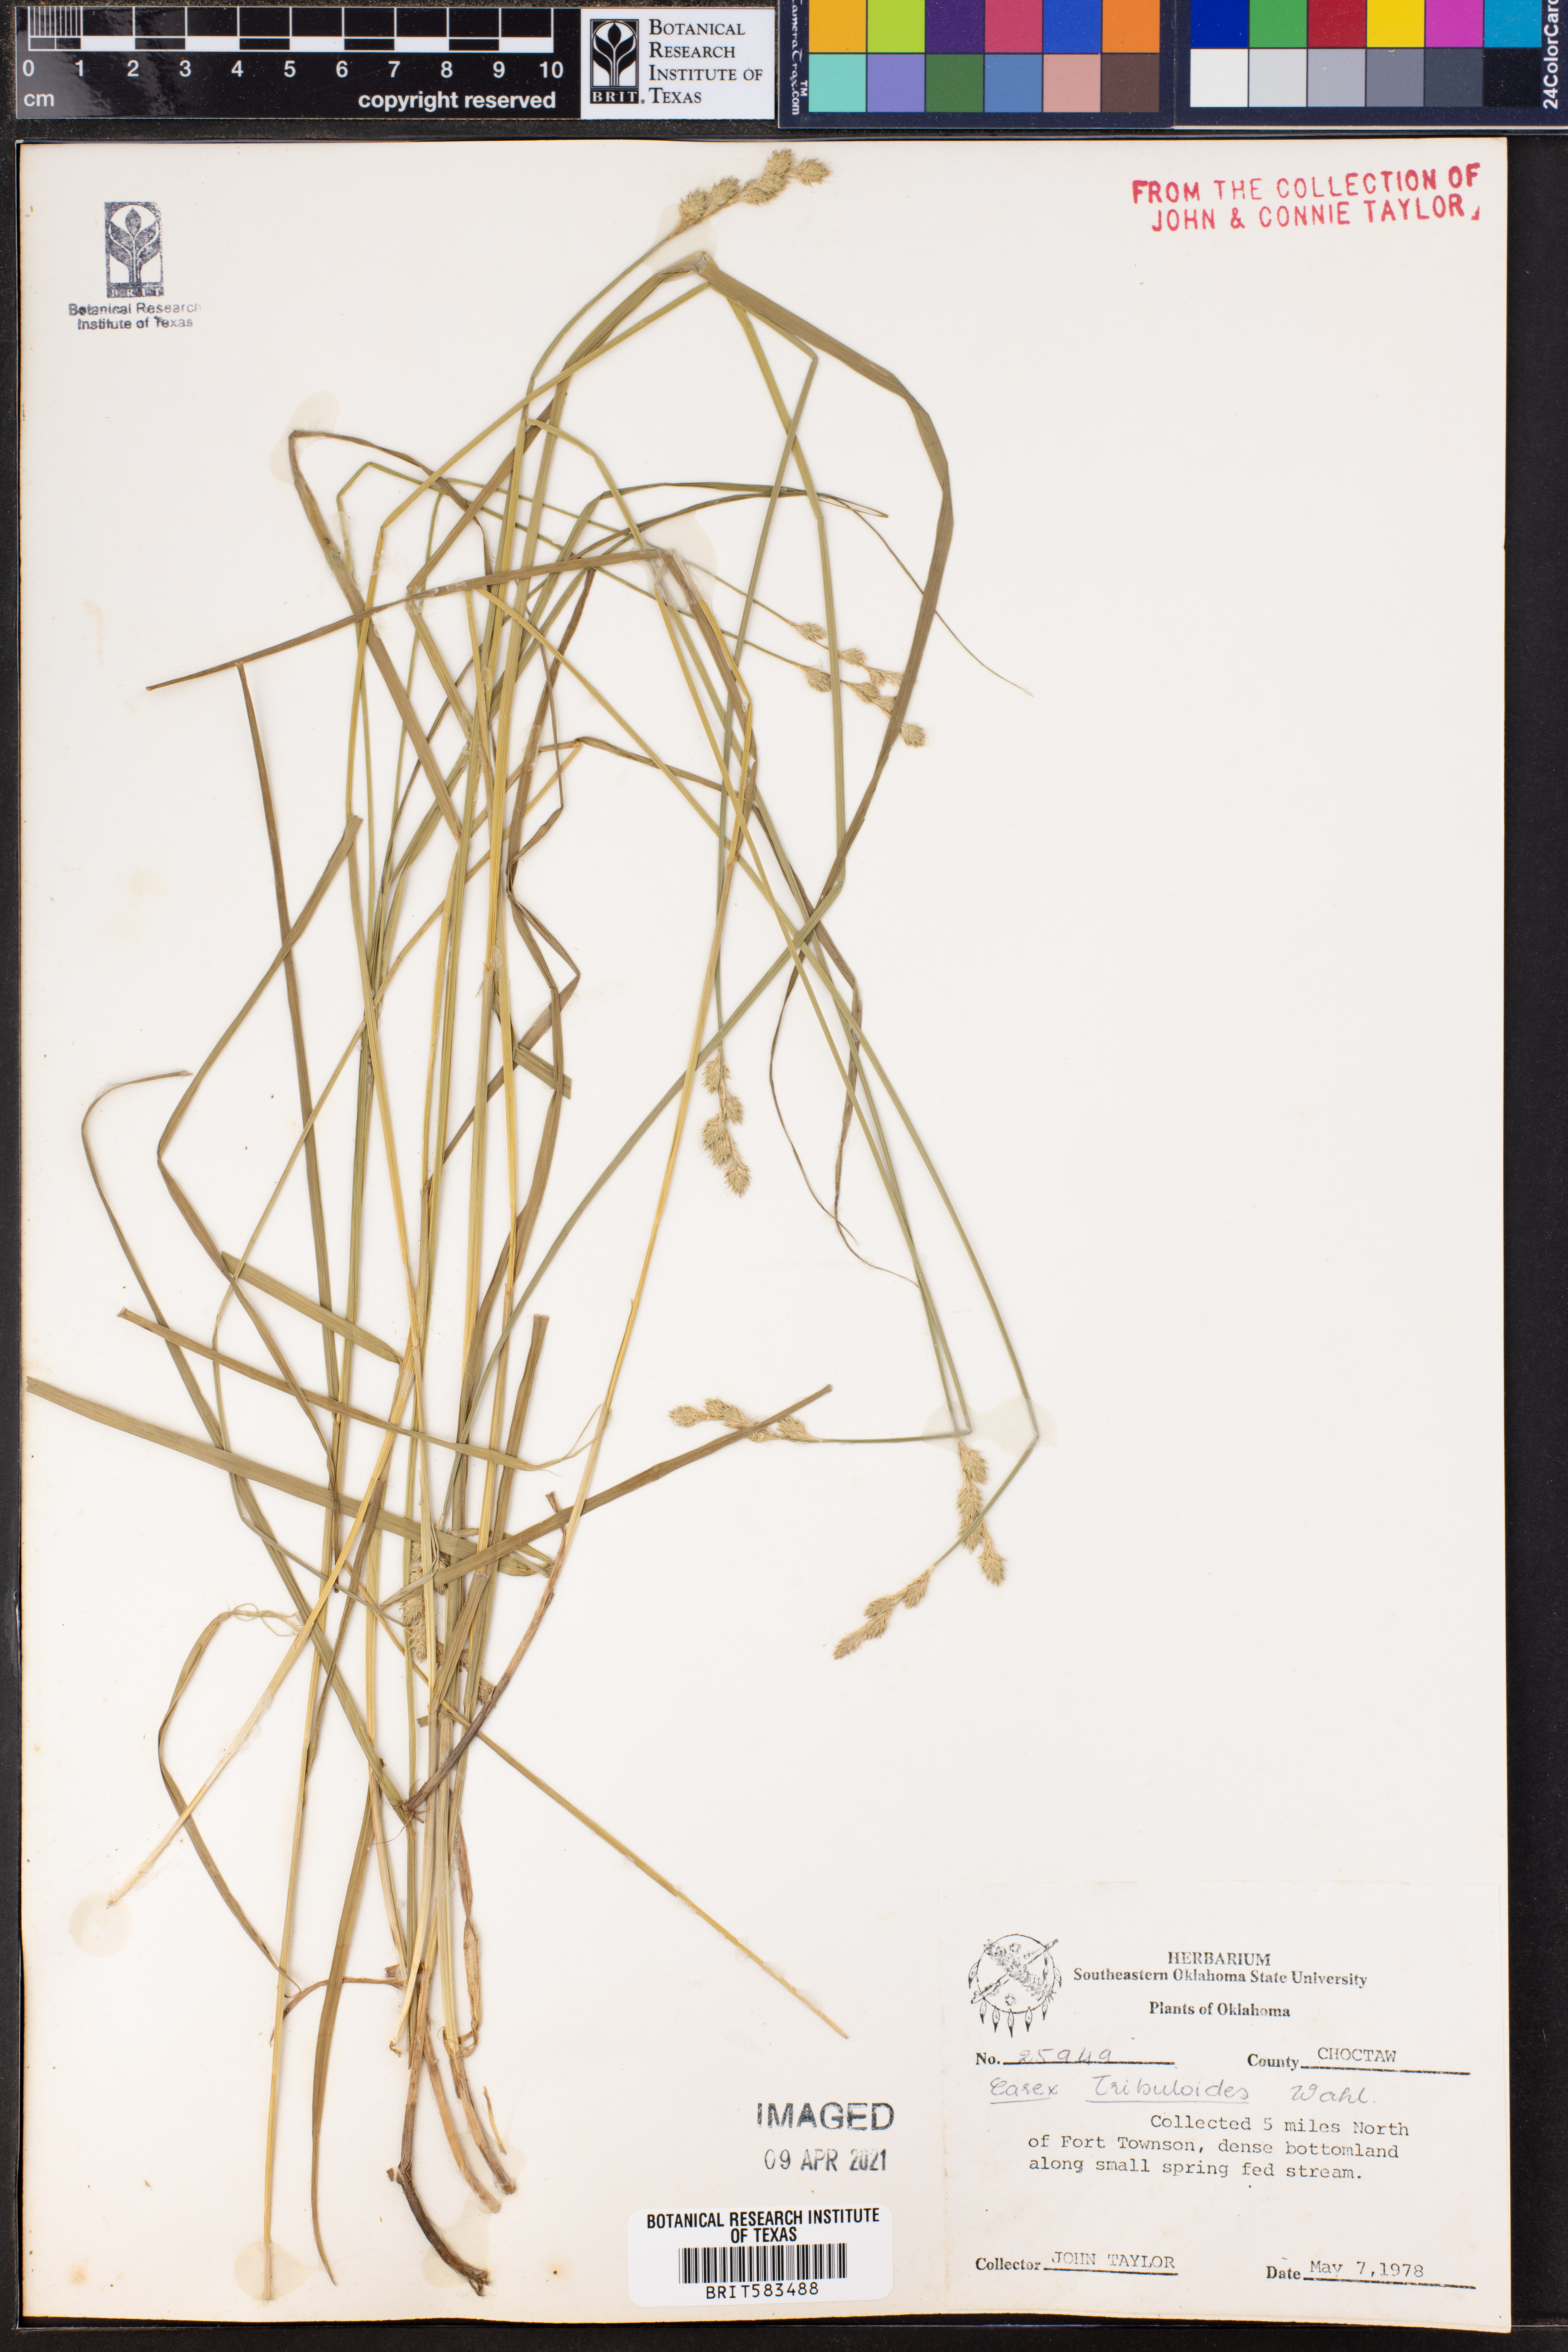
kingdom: Plantae
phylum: Tracheophyta
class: Liliopsida
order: Poales
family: Cyperaceae
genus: Carex
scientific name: Carex tribuloides
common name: Blunt broom sedge
